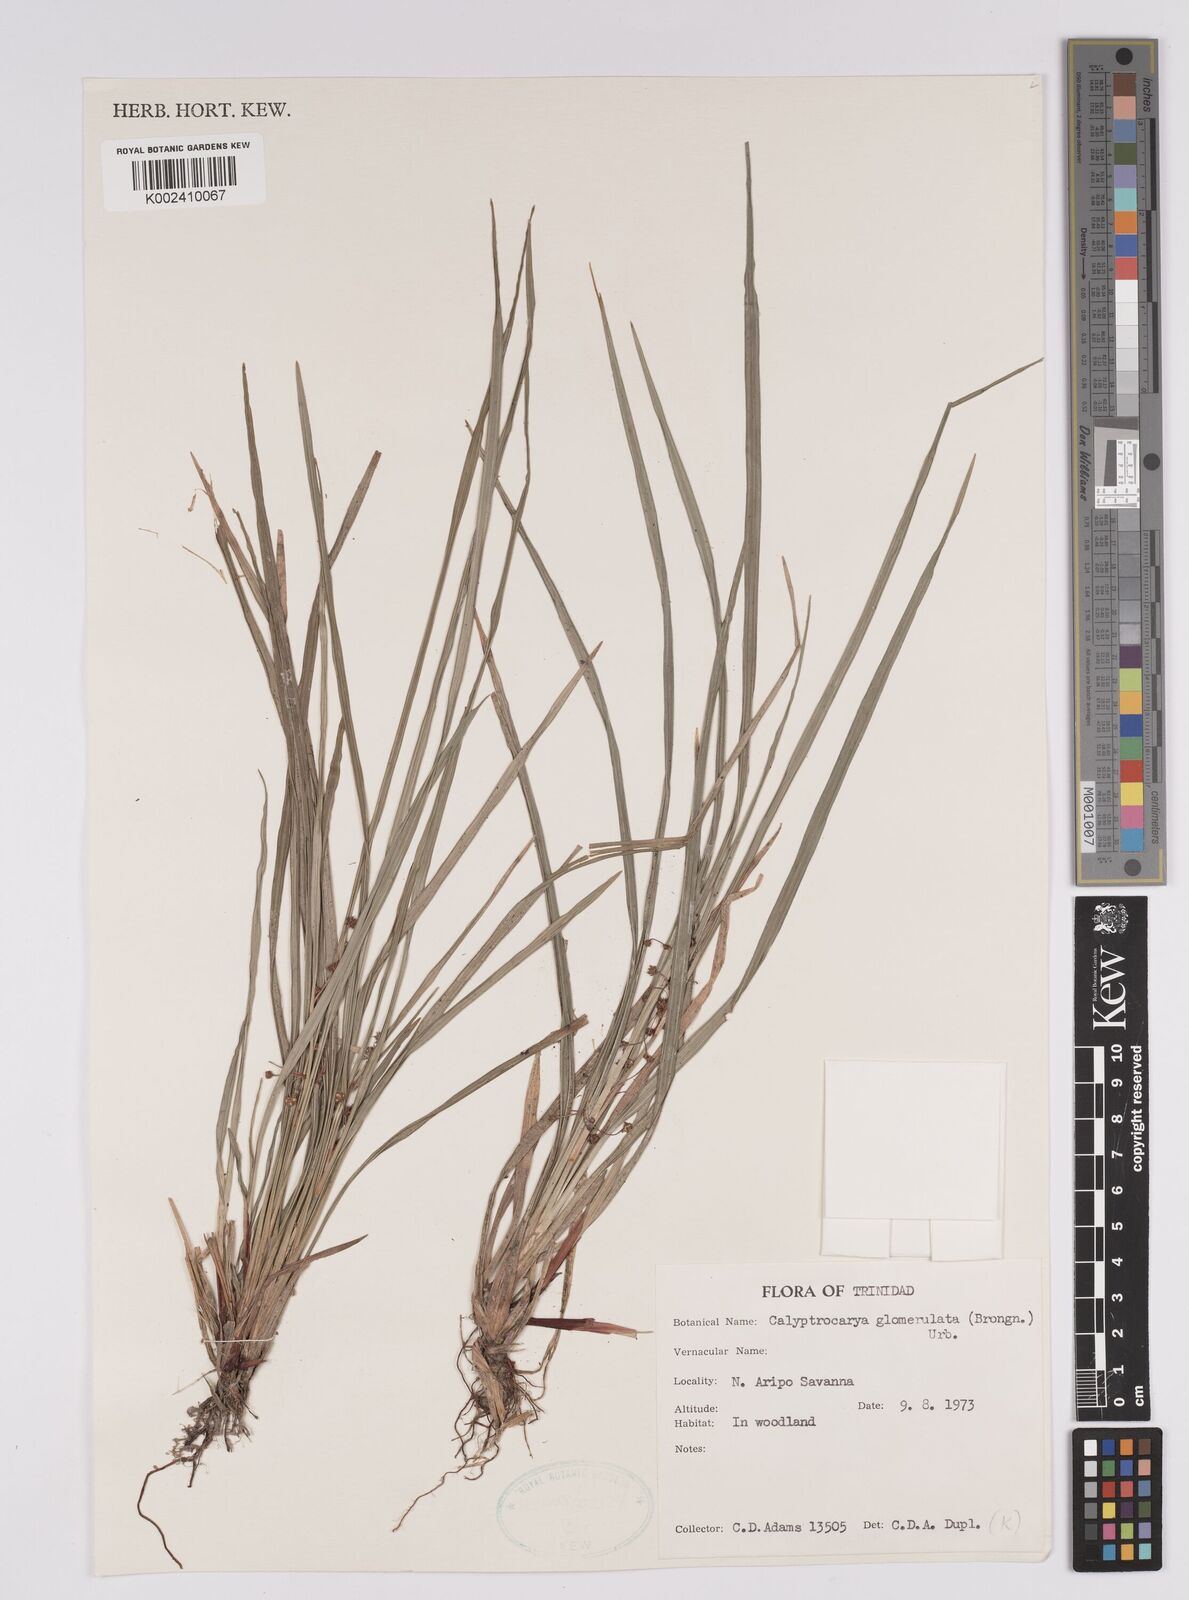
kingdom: Plantae
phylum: Tracheophyta
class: Liliopsida
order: Poales
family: Cyperaceae
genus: Calyptrocarya
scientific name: Calyptrocarya glomerulata
